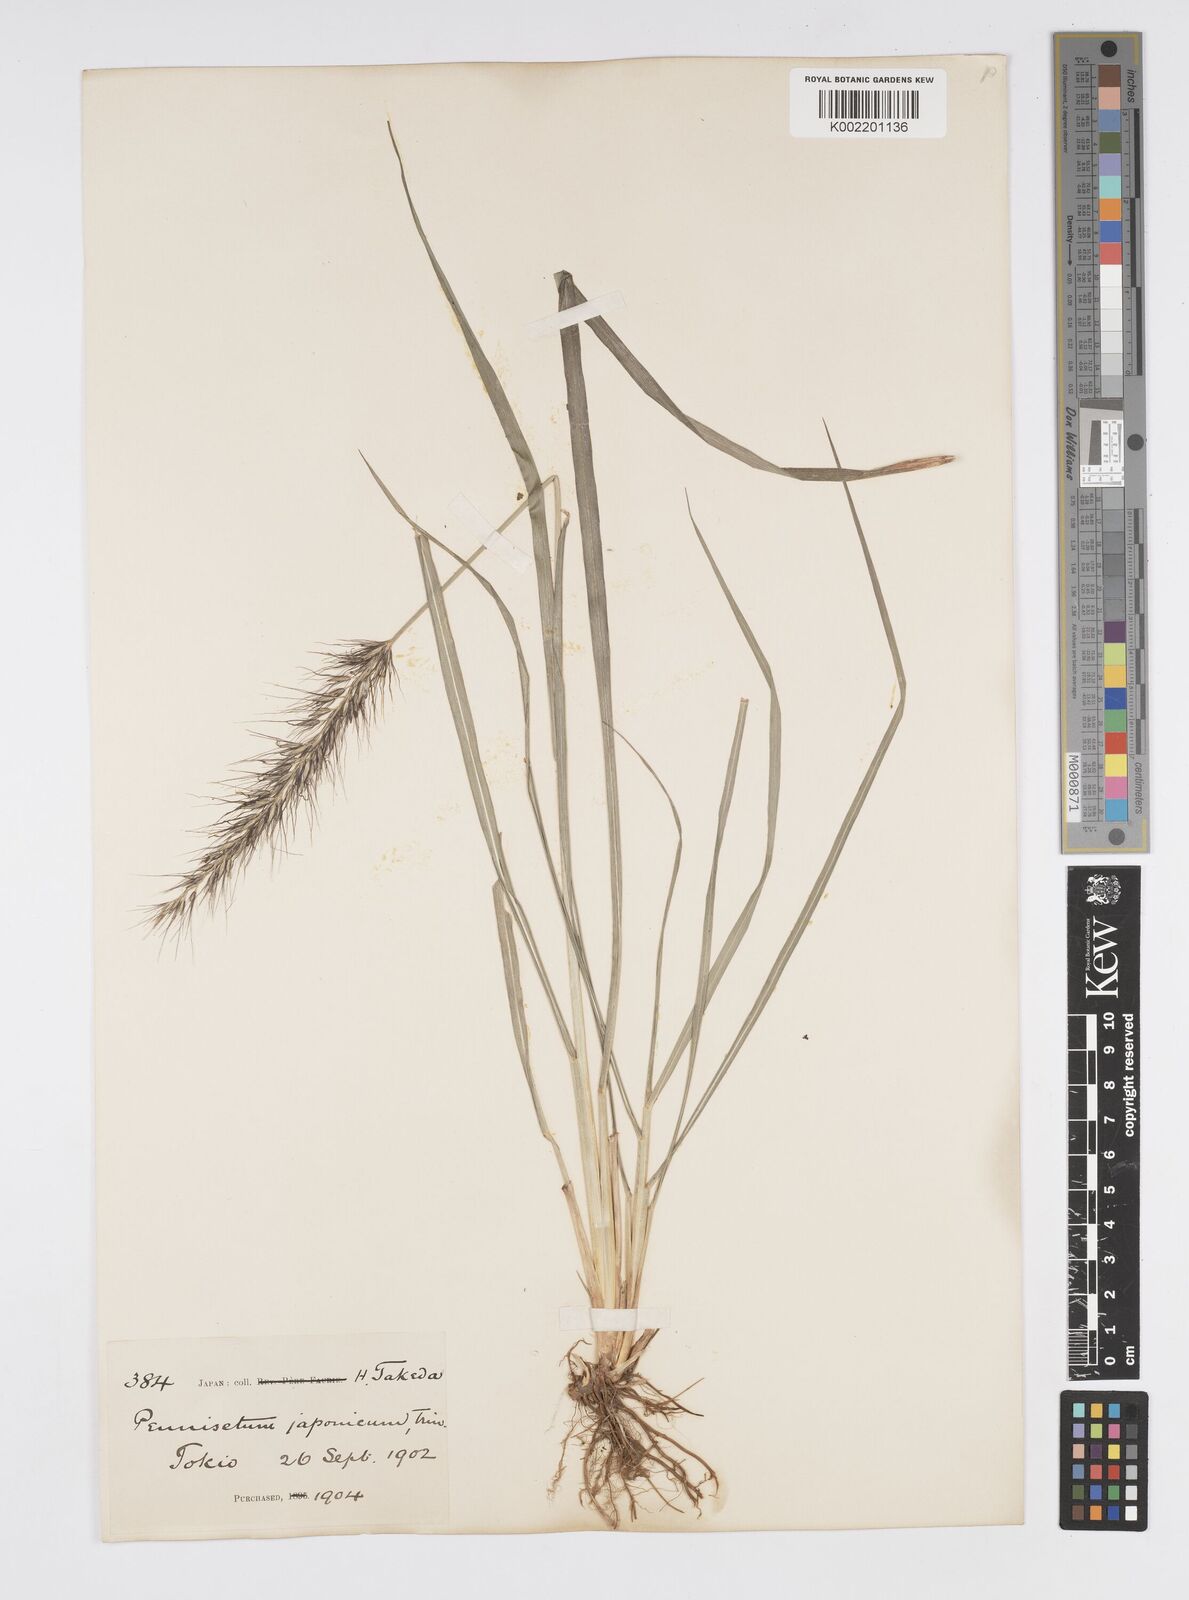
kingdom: Plantae
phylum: Tracheophyta
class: Liliopsida
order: Poales
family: Poaceae
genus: Cenchrus
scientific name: Cenchrus alopecuroides
